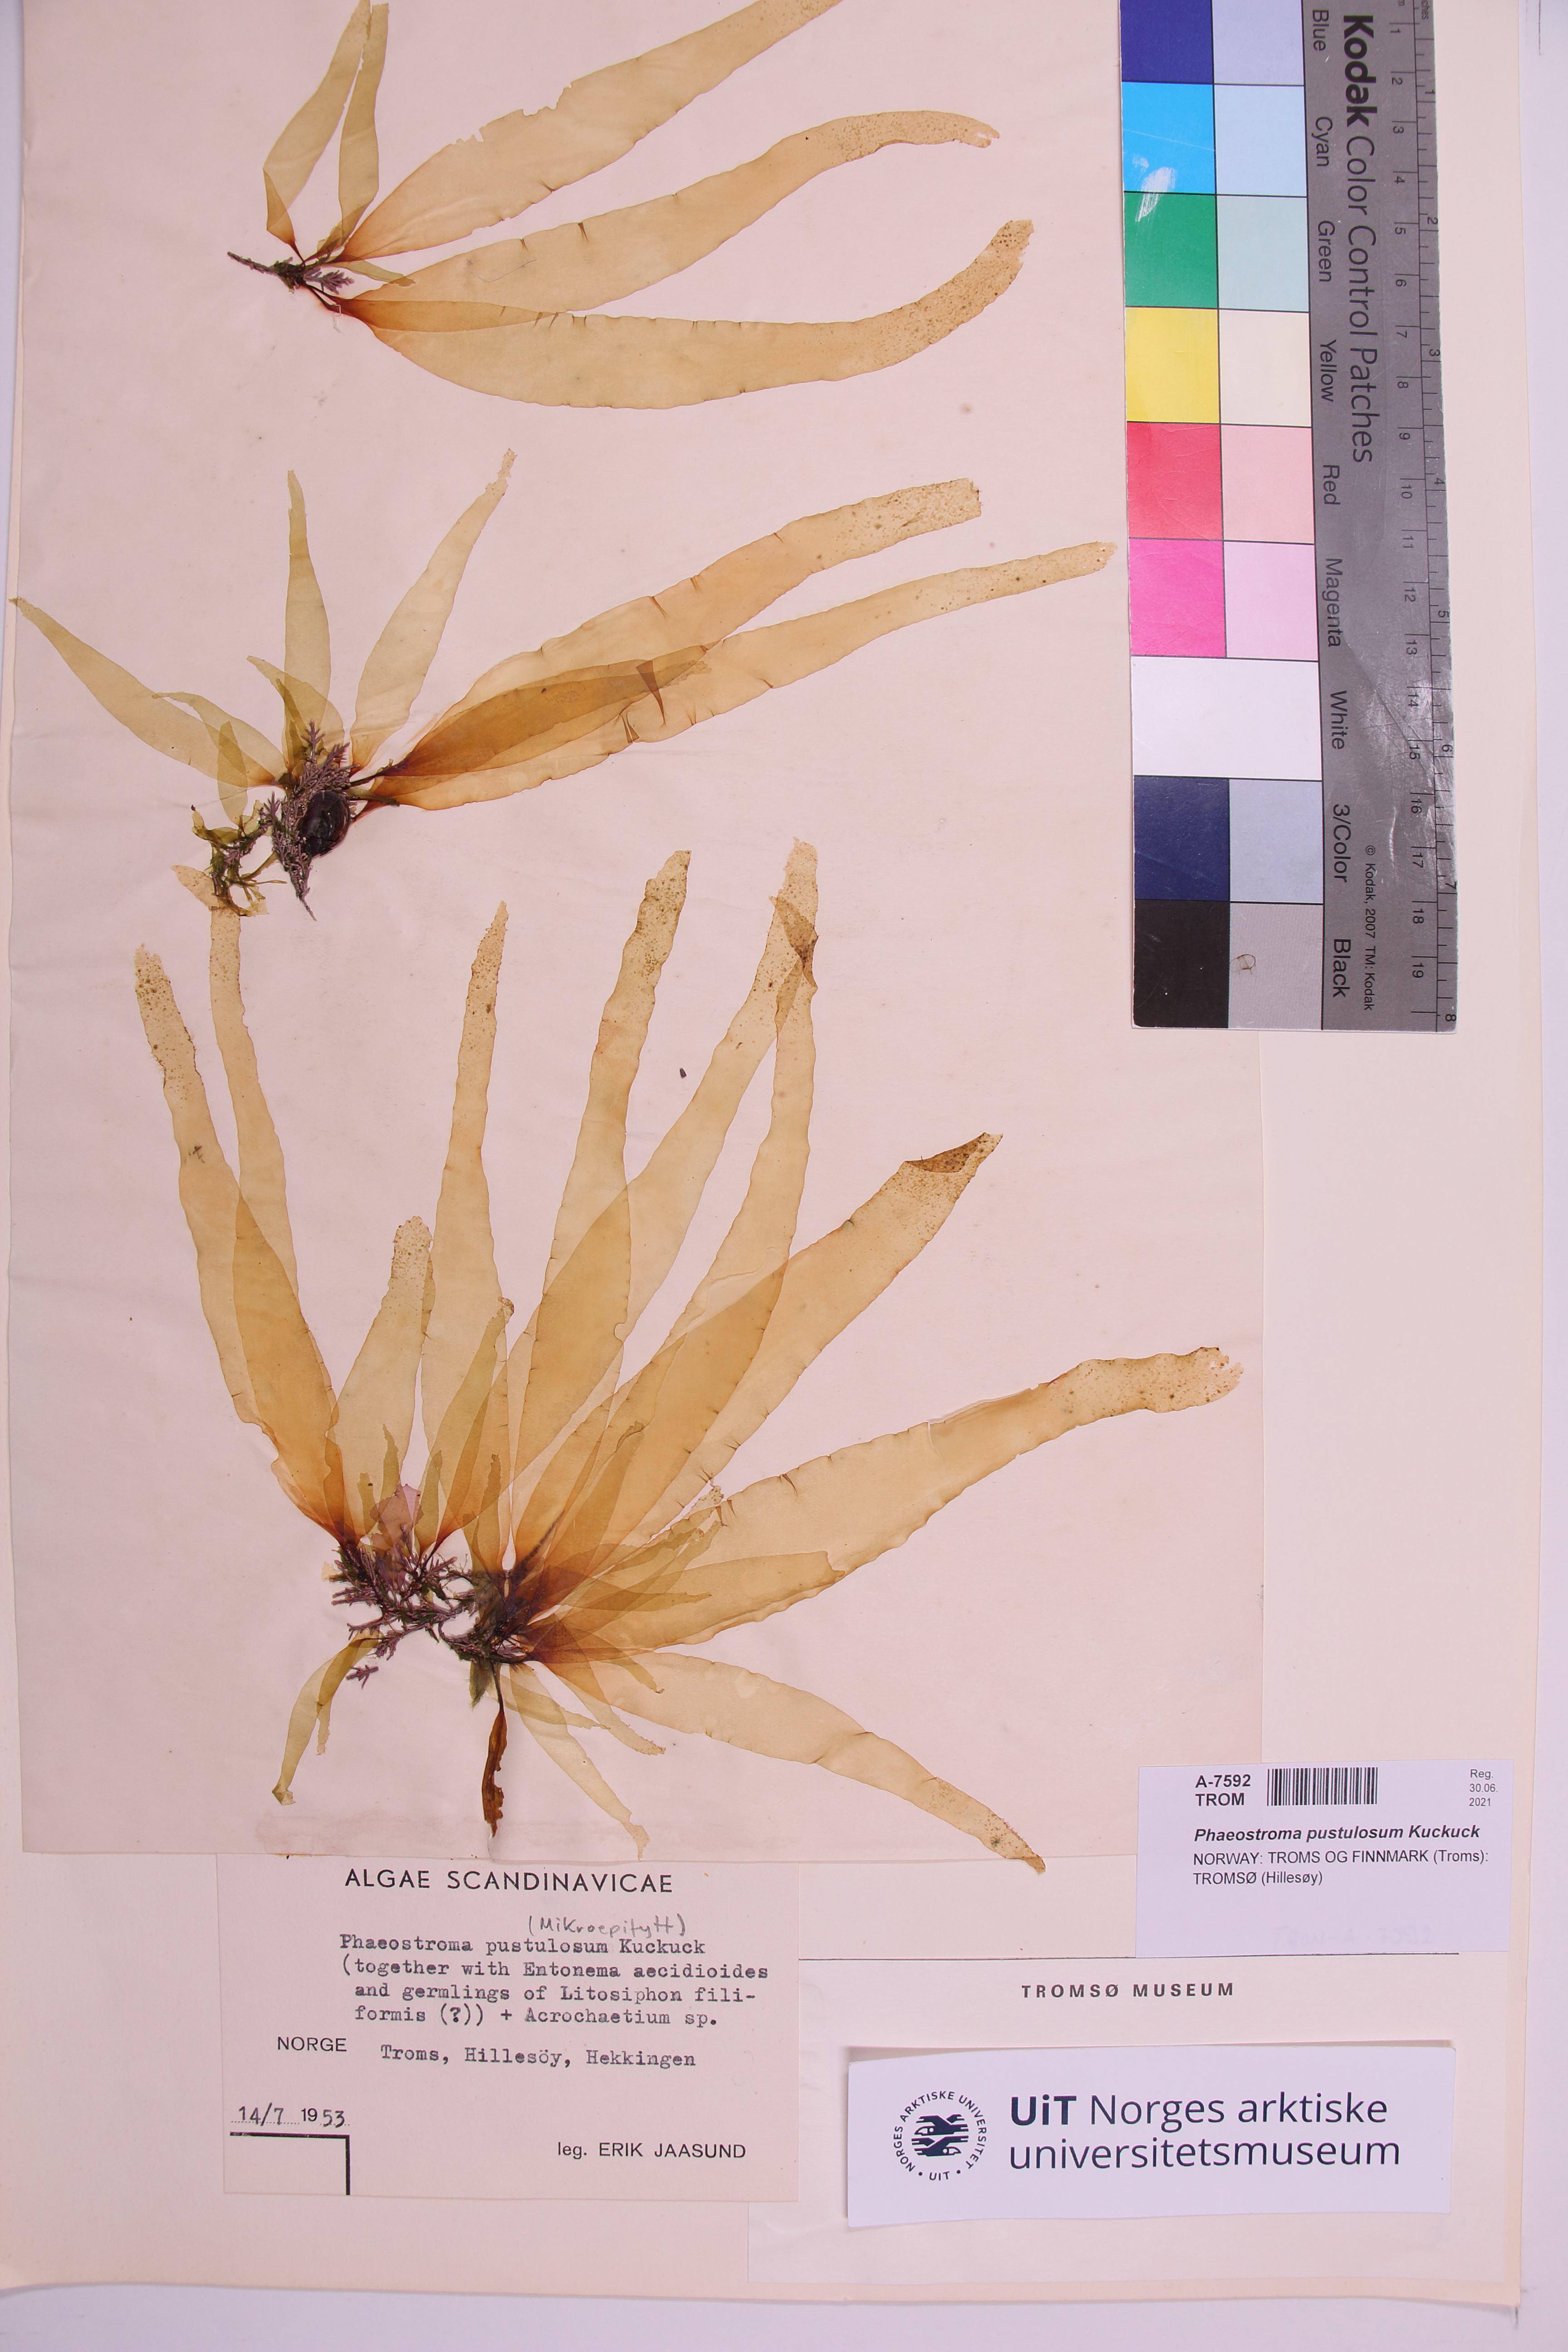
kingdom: Chromista
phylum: Ochrophyta
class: Phaeophyceae
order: Ectocarpales
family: Ectocarpaceae
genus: Phaeostroma
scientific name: Phaeostroma pustulosum
